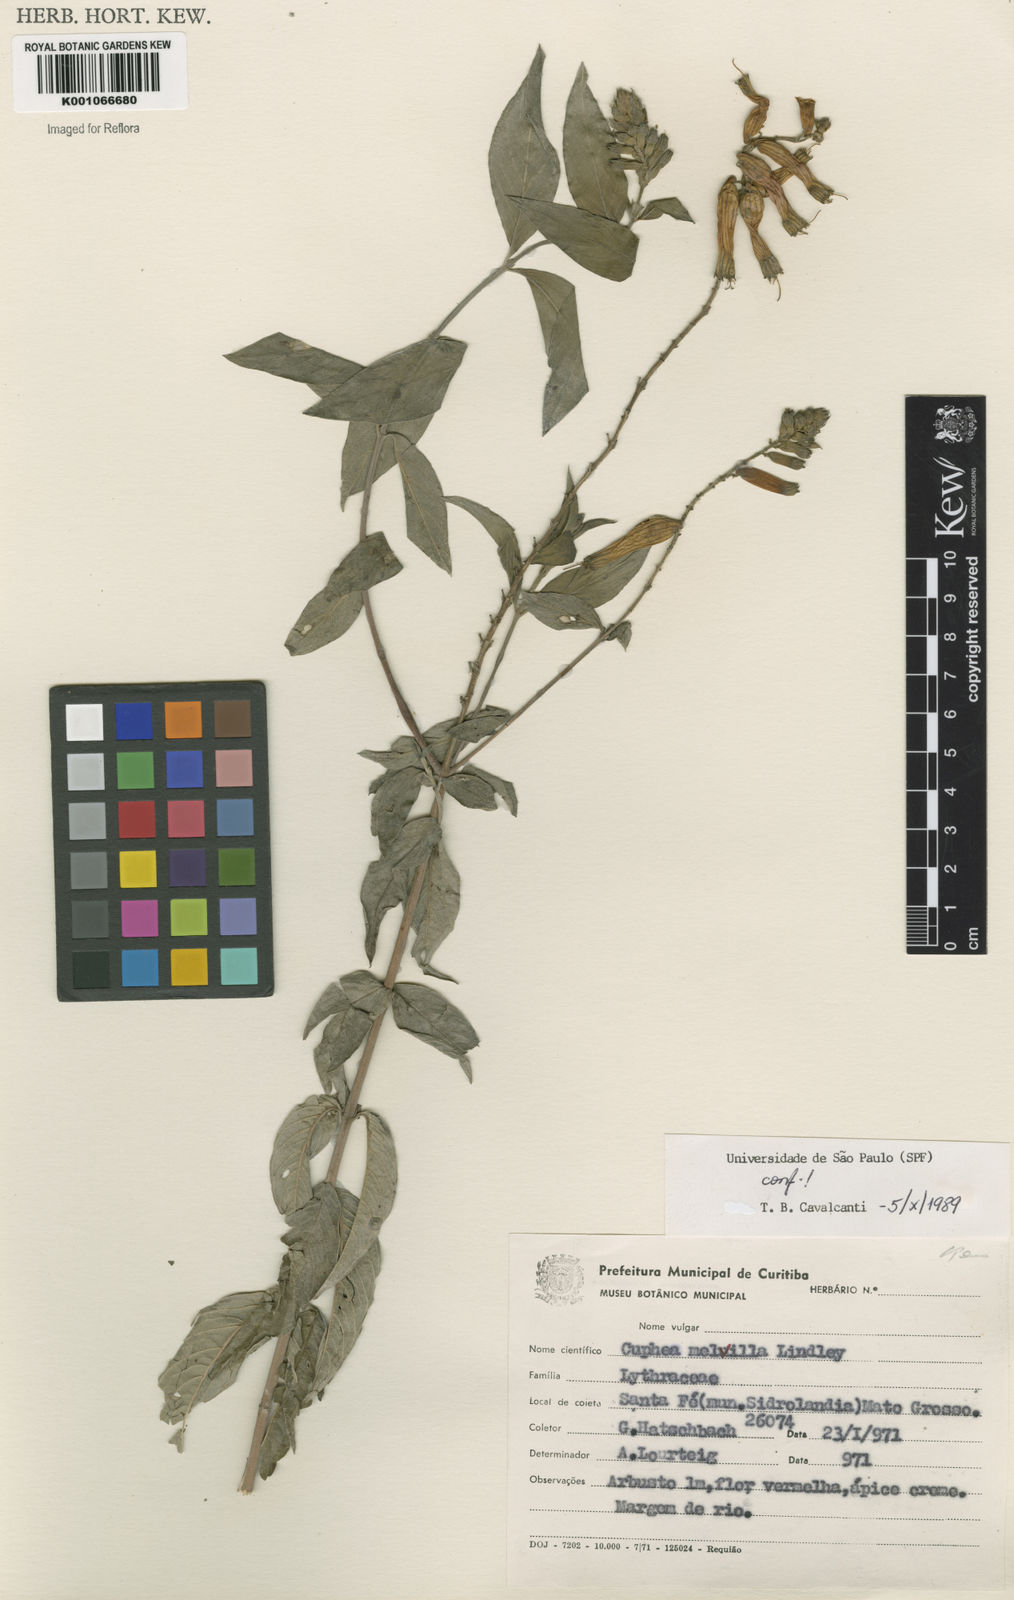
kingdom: Plantae
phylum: Tracheophyta
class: Magnoliopsida
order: Myrtales
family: Lythraceae
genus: Cuphea
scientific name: Cuphea melvilla
